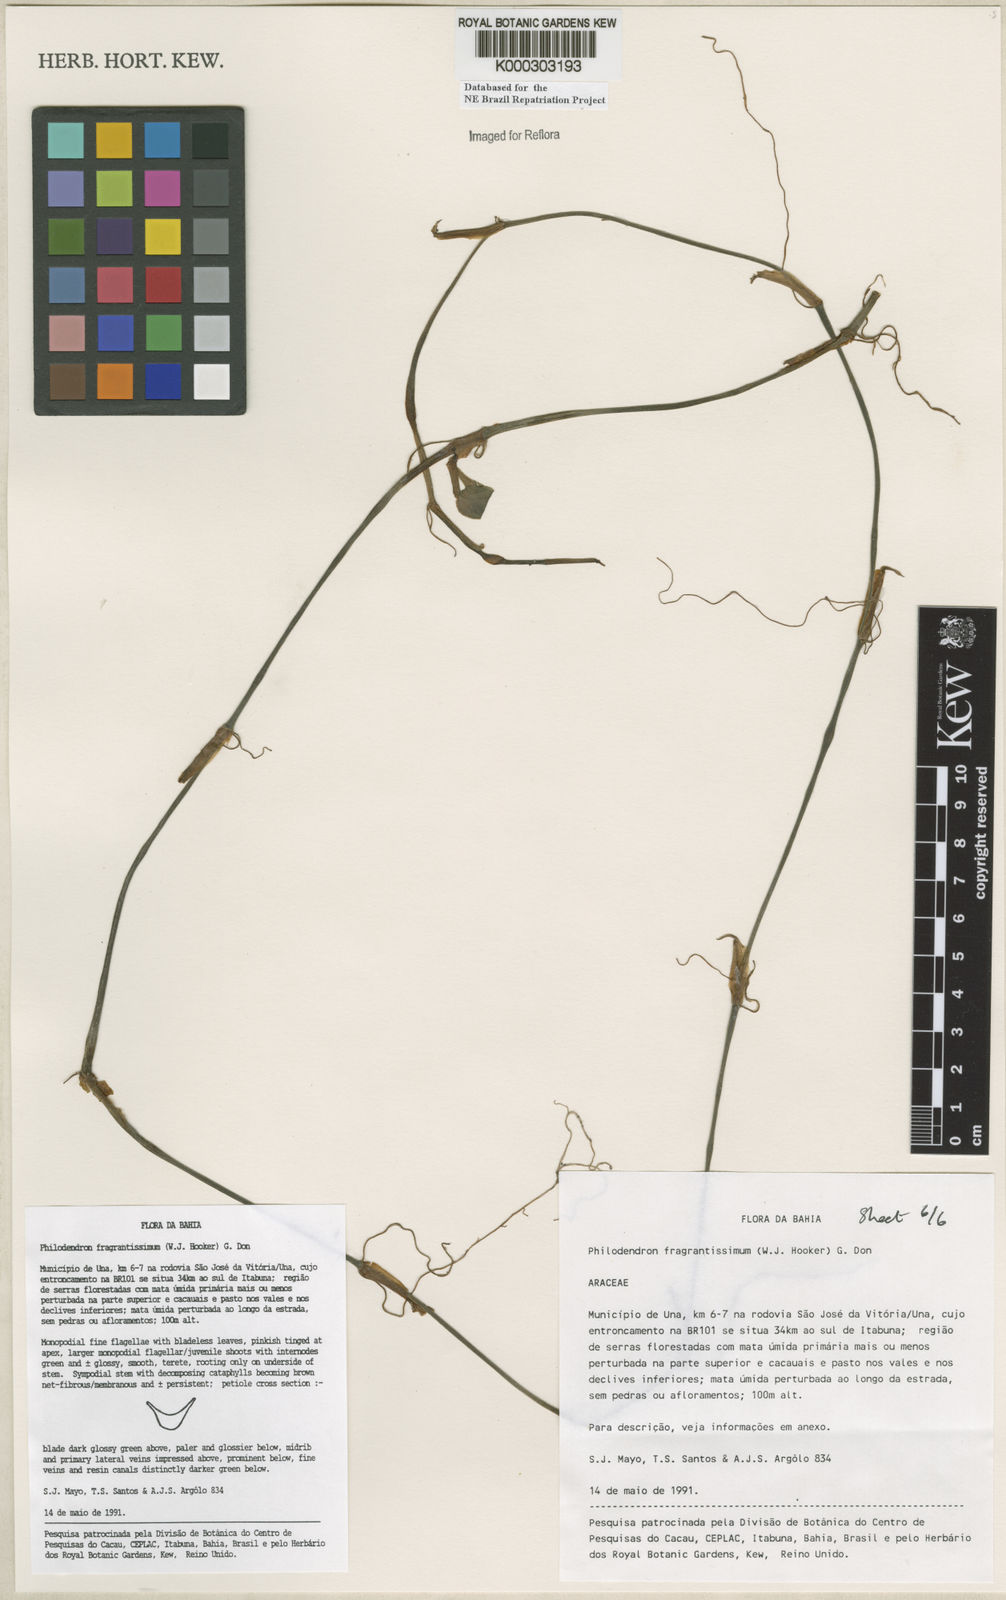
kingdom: Plantae
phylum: Tracheophyta
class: Liliopsida
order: Alismatales
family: Araceae
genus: Philodendron
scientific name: Philodendron fragrantissimum
